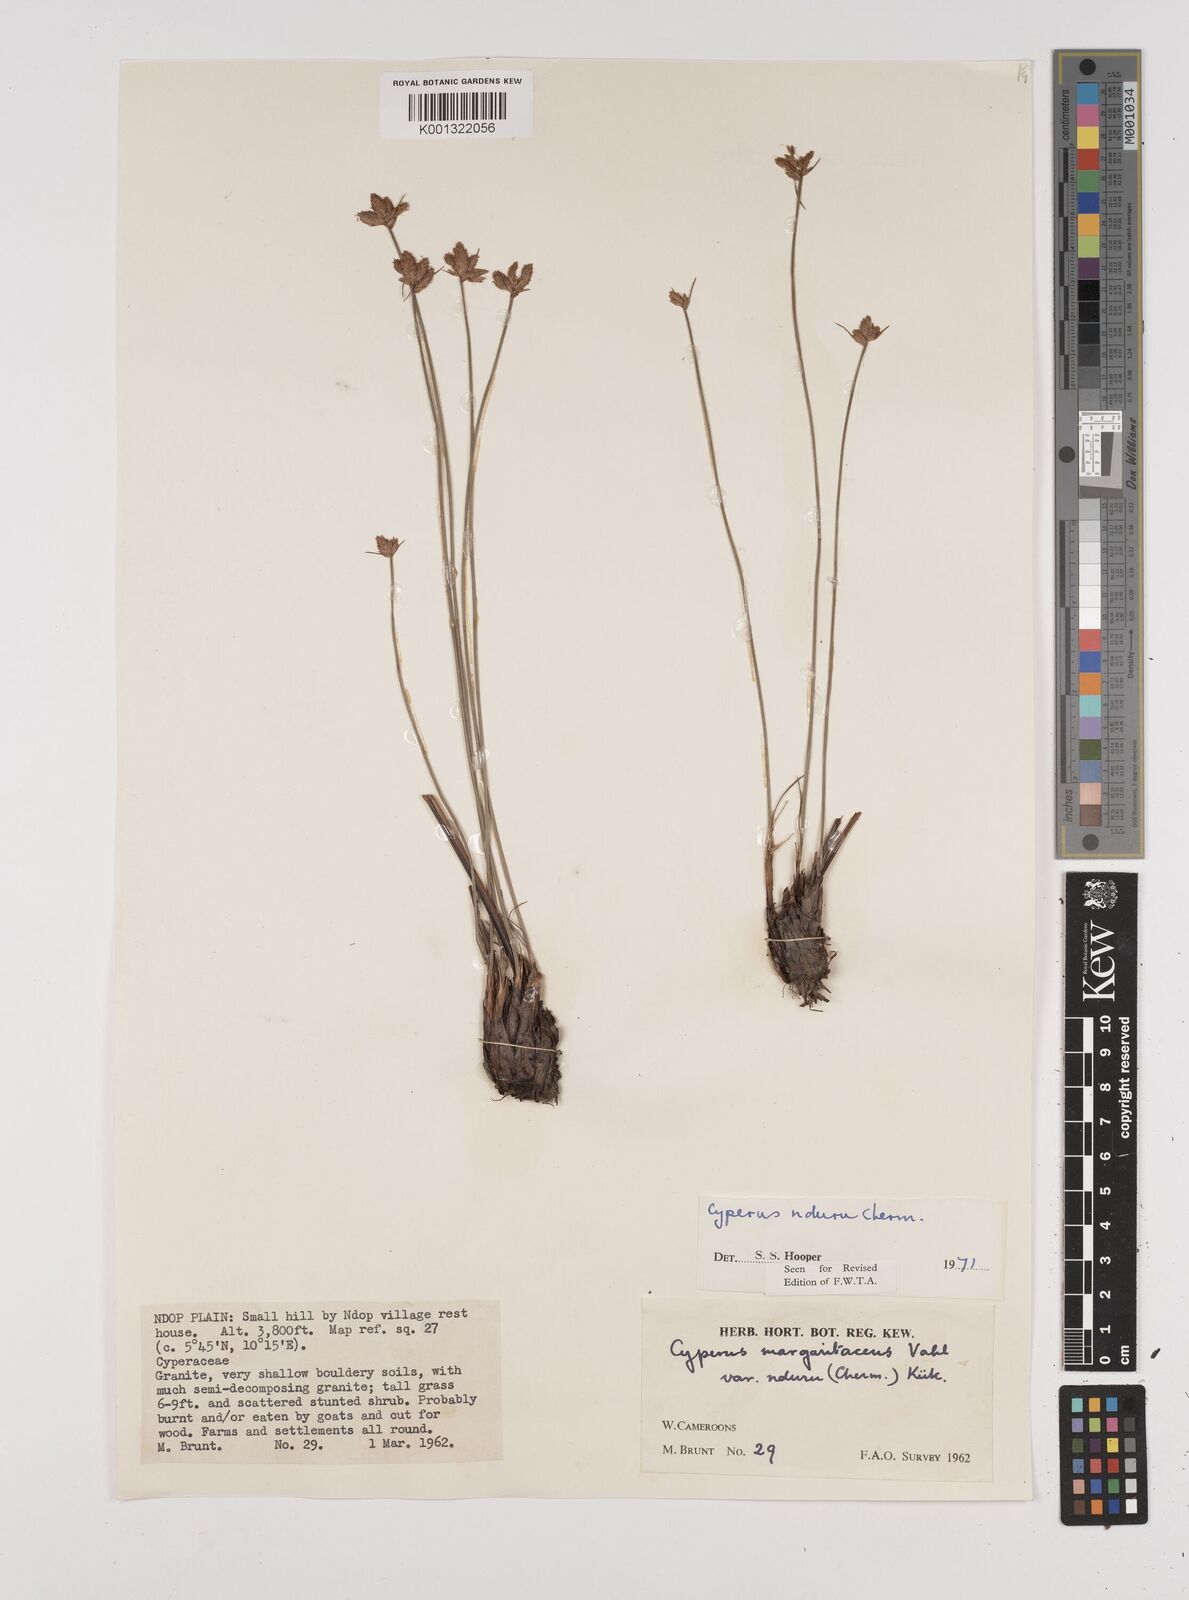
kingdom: Plantae
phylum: Tracheophyta
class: Liliopsida
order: Poales
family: Cyperaceae
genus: Cyperus
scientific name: Cyperus nduru
